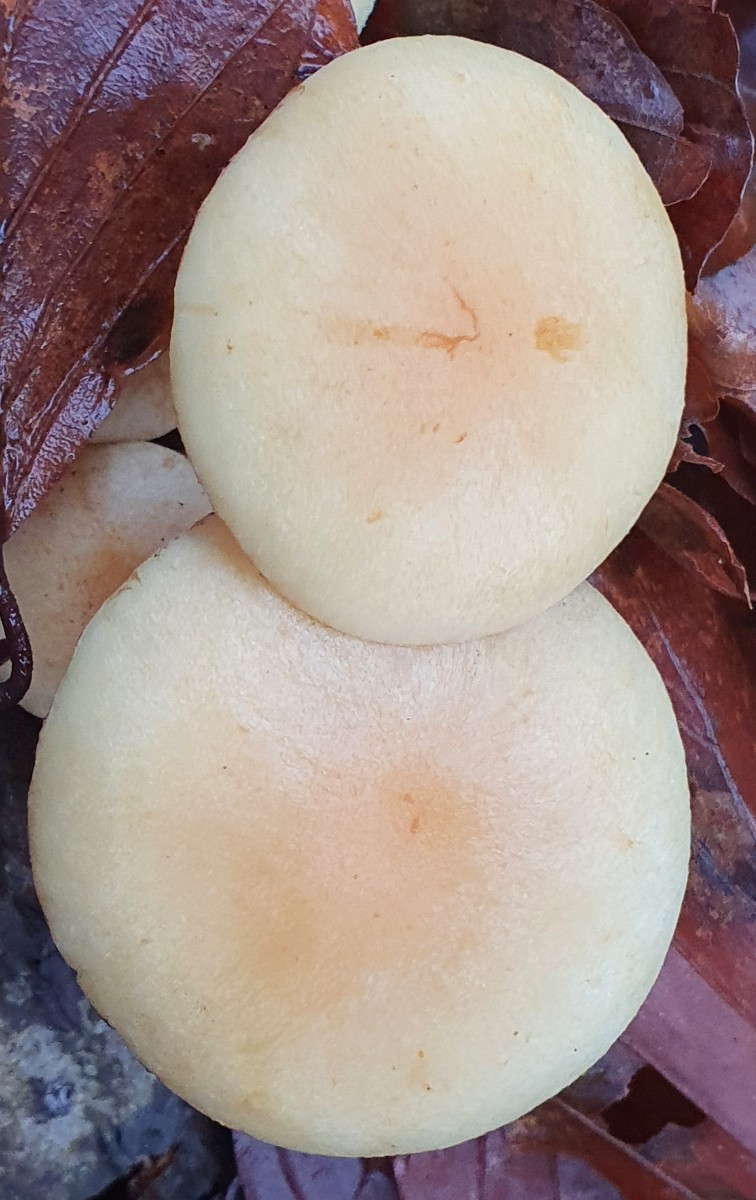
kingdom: Fungi
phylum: Basidiomycota
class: Agaricomycetes
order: Agaricales
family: Strophariaceae
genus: Hypholoma
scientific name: Hypholoma lateritium
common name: teglrød svovlhat
